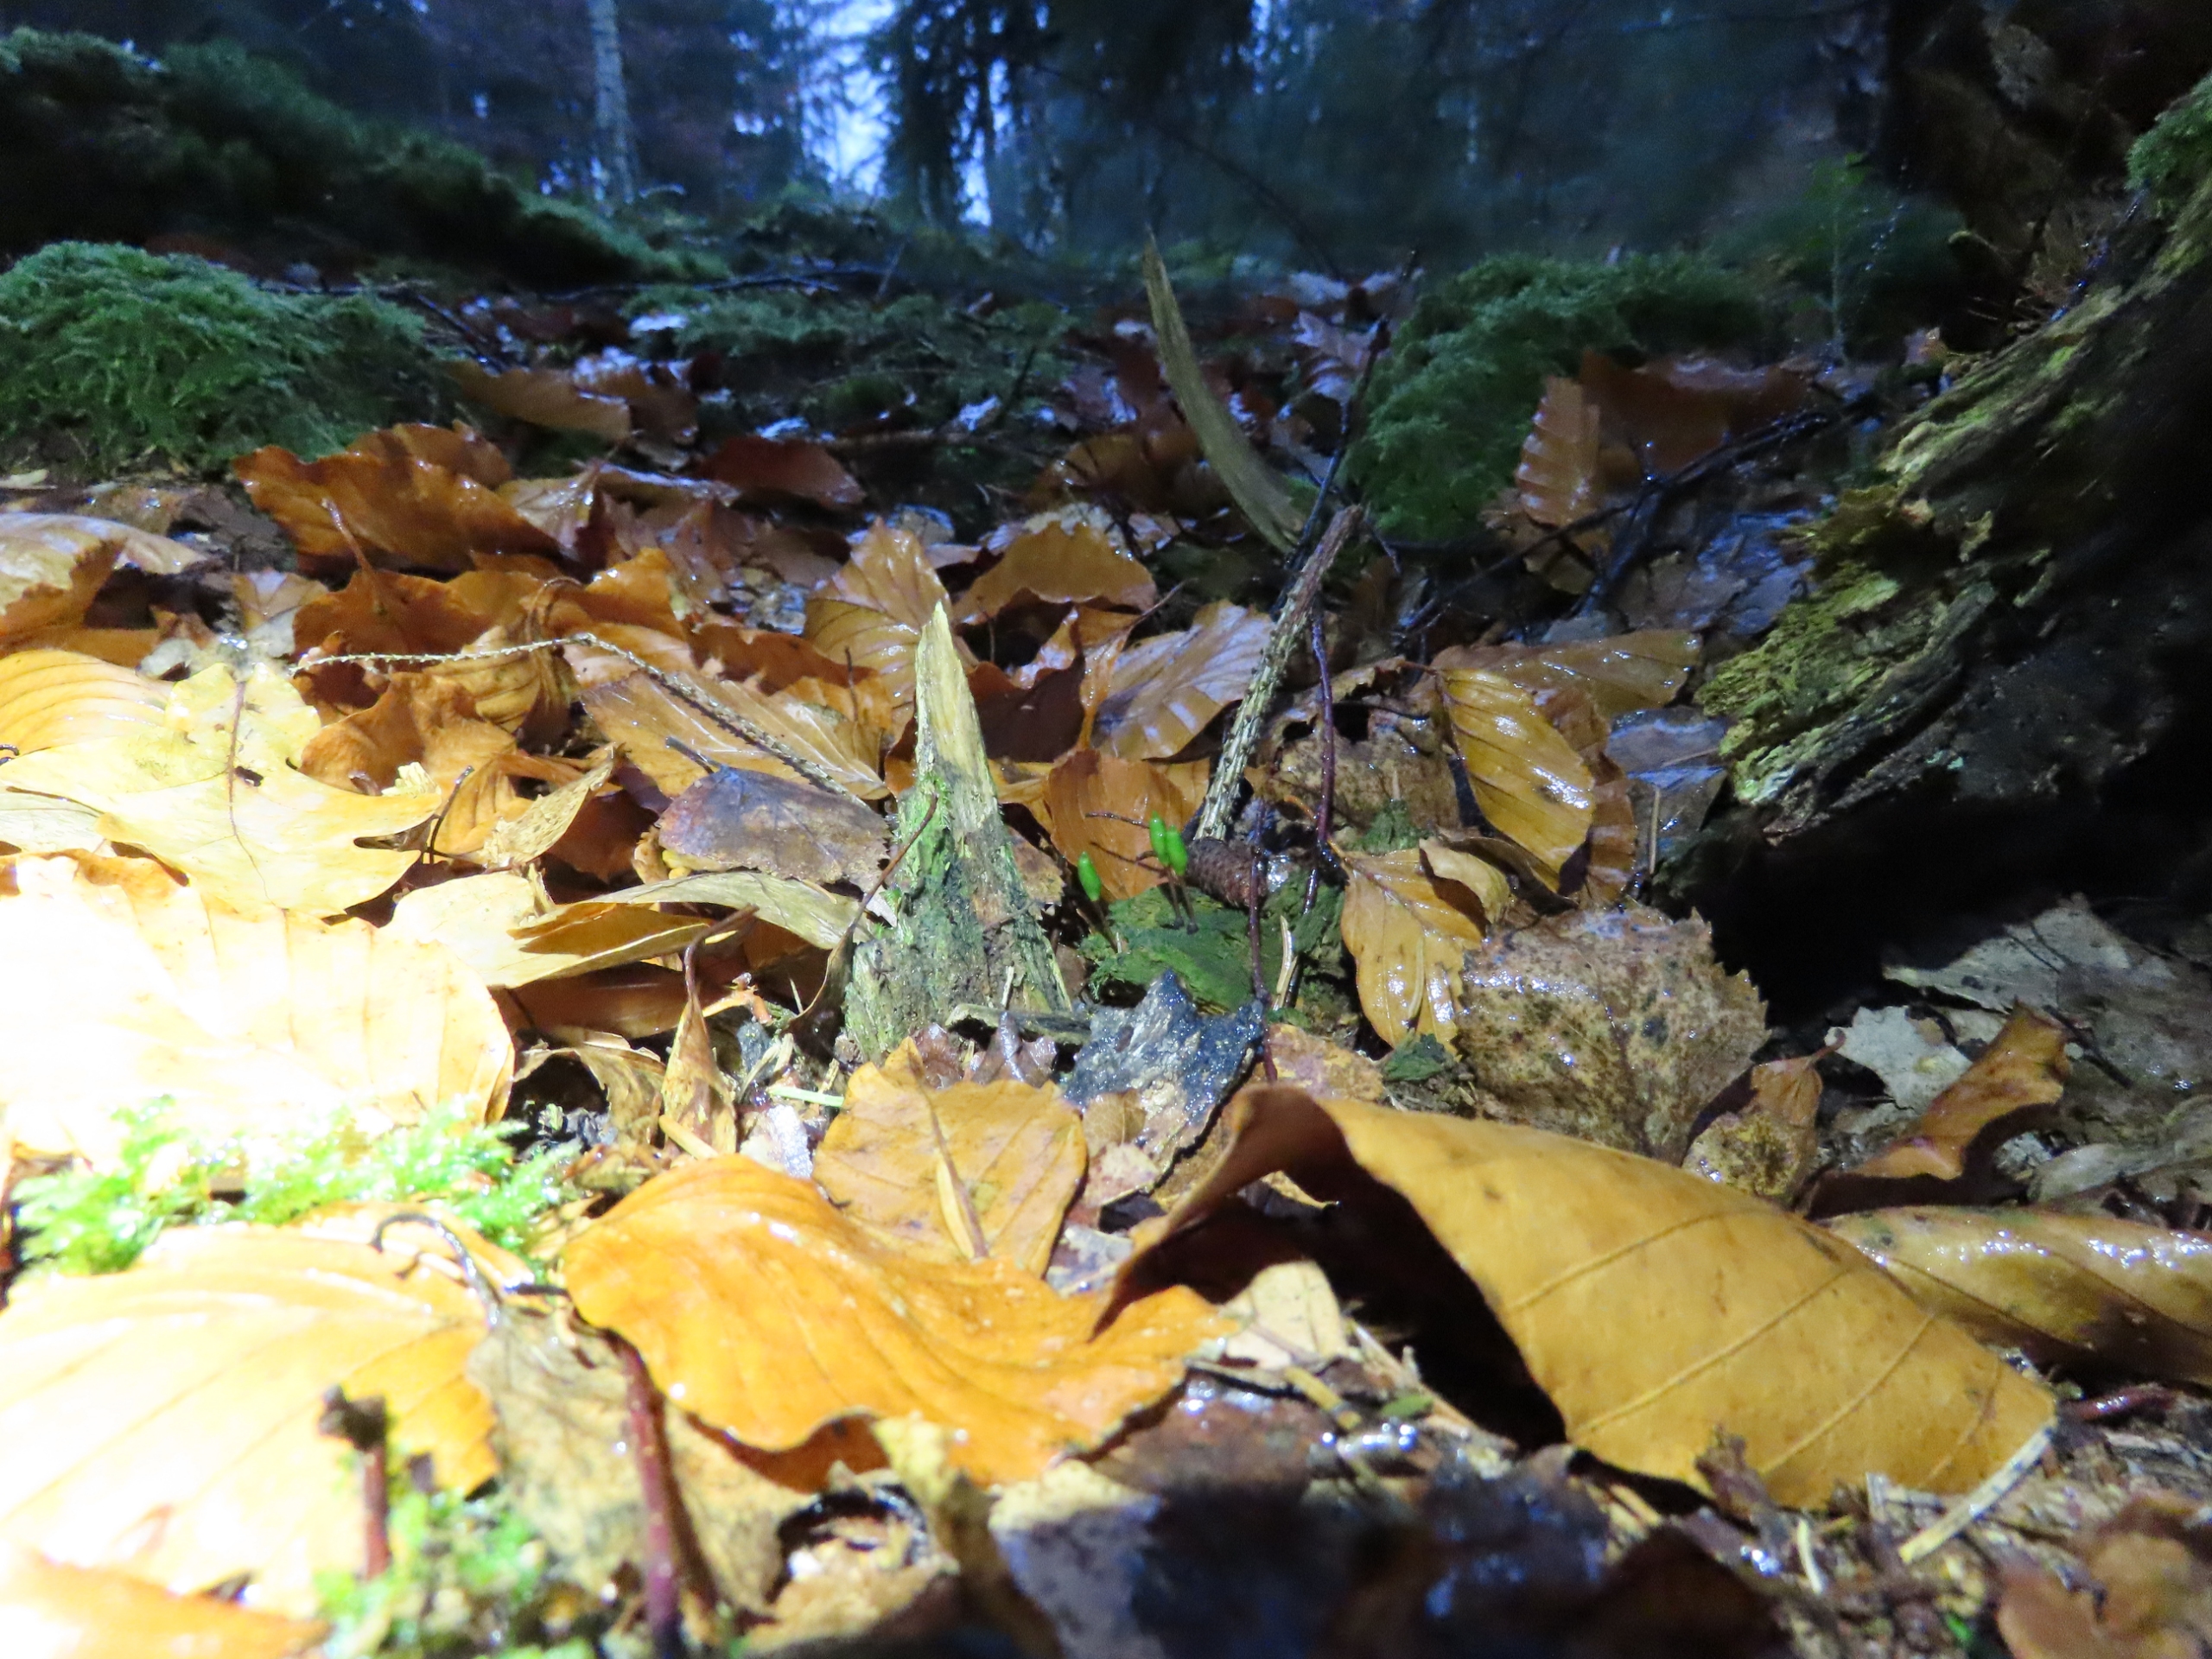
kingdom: Plantae
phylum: Bryophyta
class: Bryopsida
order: Buxbaumiales
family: Buxbaumiaceae
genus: Buxbaumia
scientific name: Buxbaumia viridis
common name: Grøn buxbaumia
